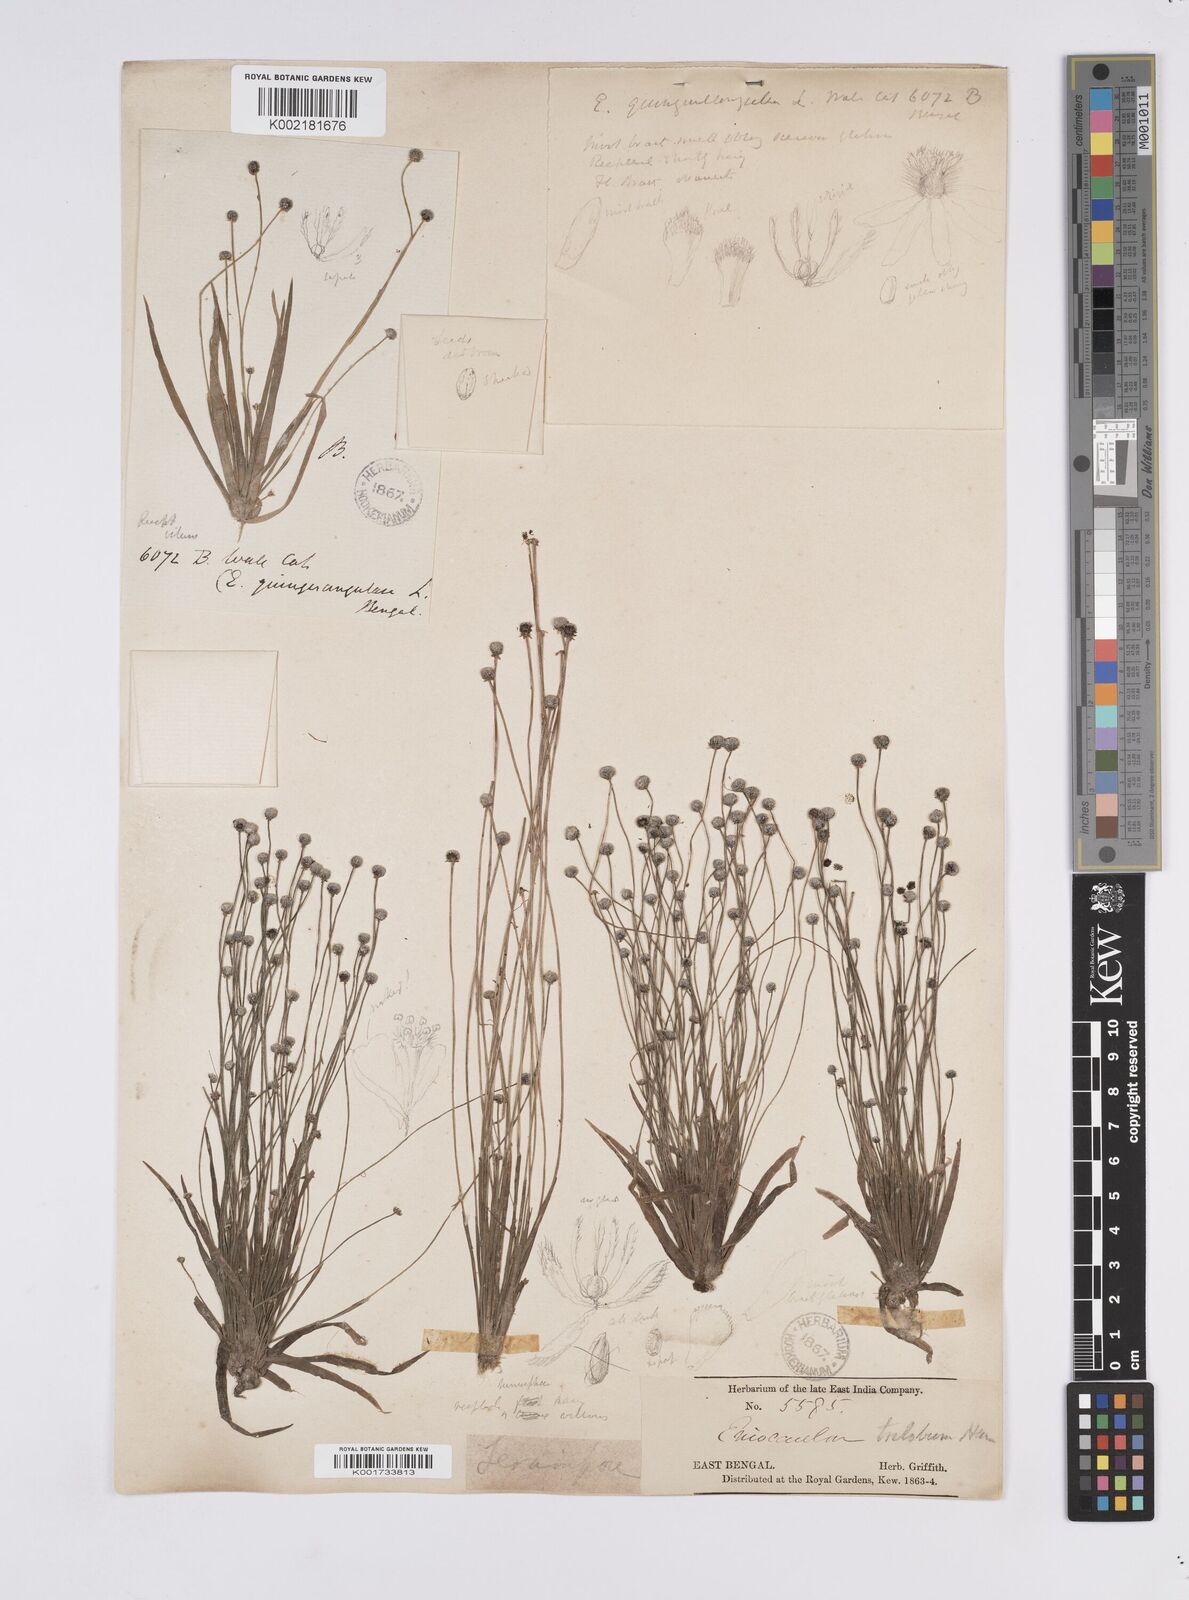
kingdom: Plantae
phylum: Tracheophyta
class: Liliopsida
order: Poales
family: Eriocaulaceae
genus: Eriocaulon
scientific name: Eriocaulon quinquangulare
